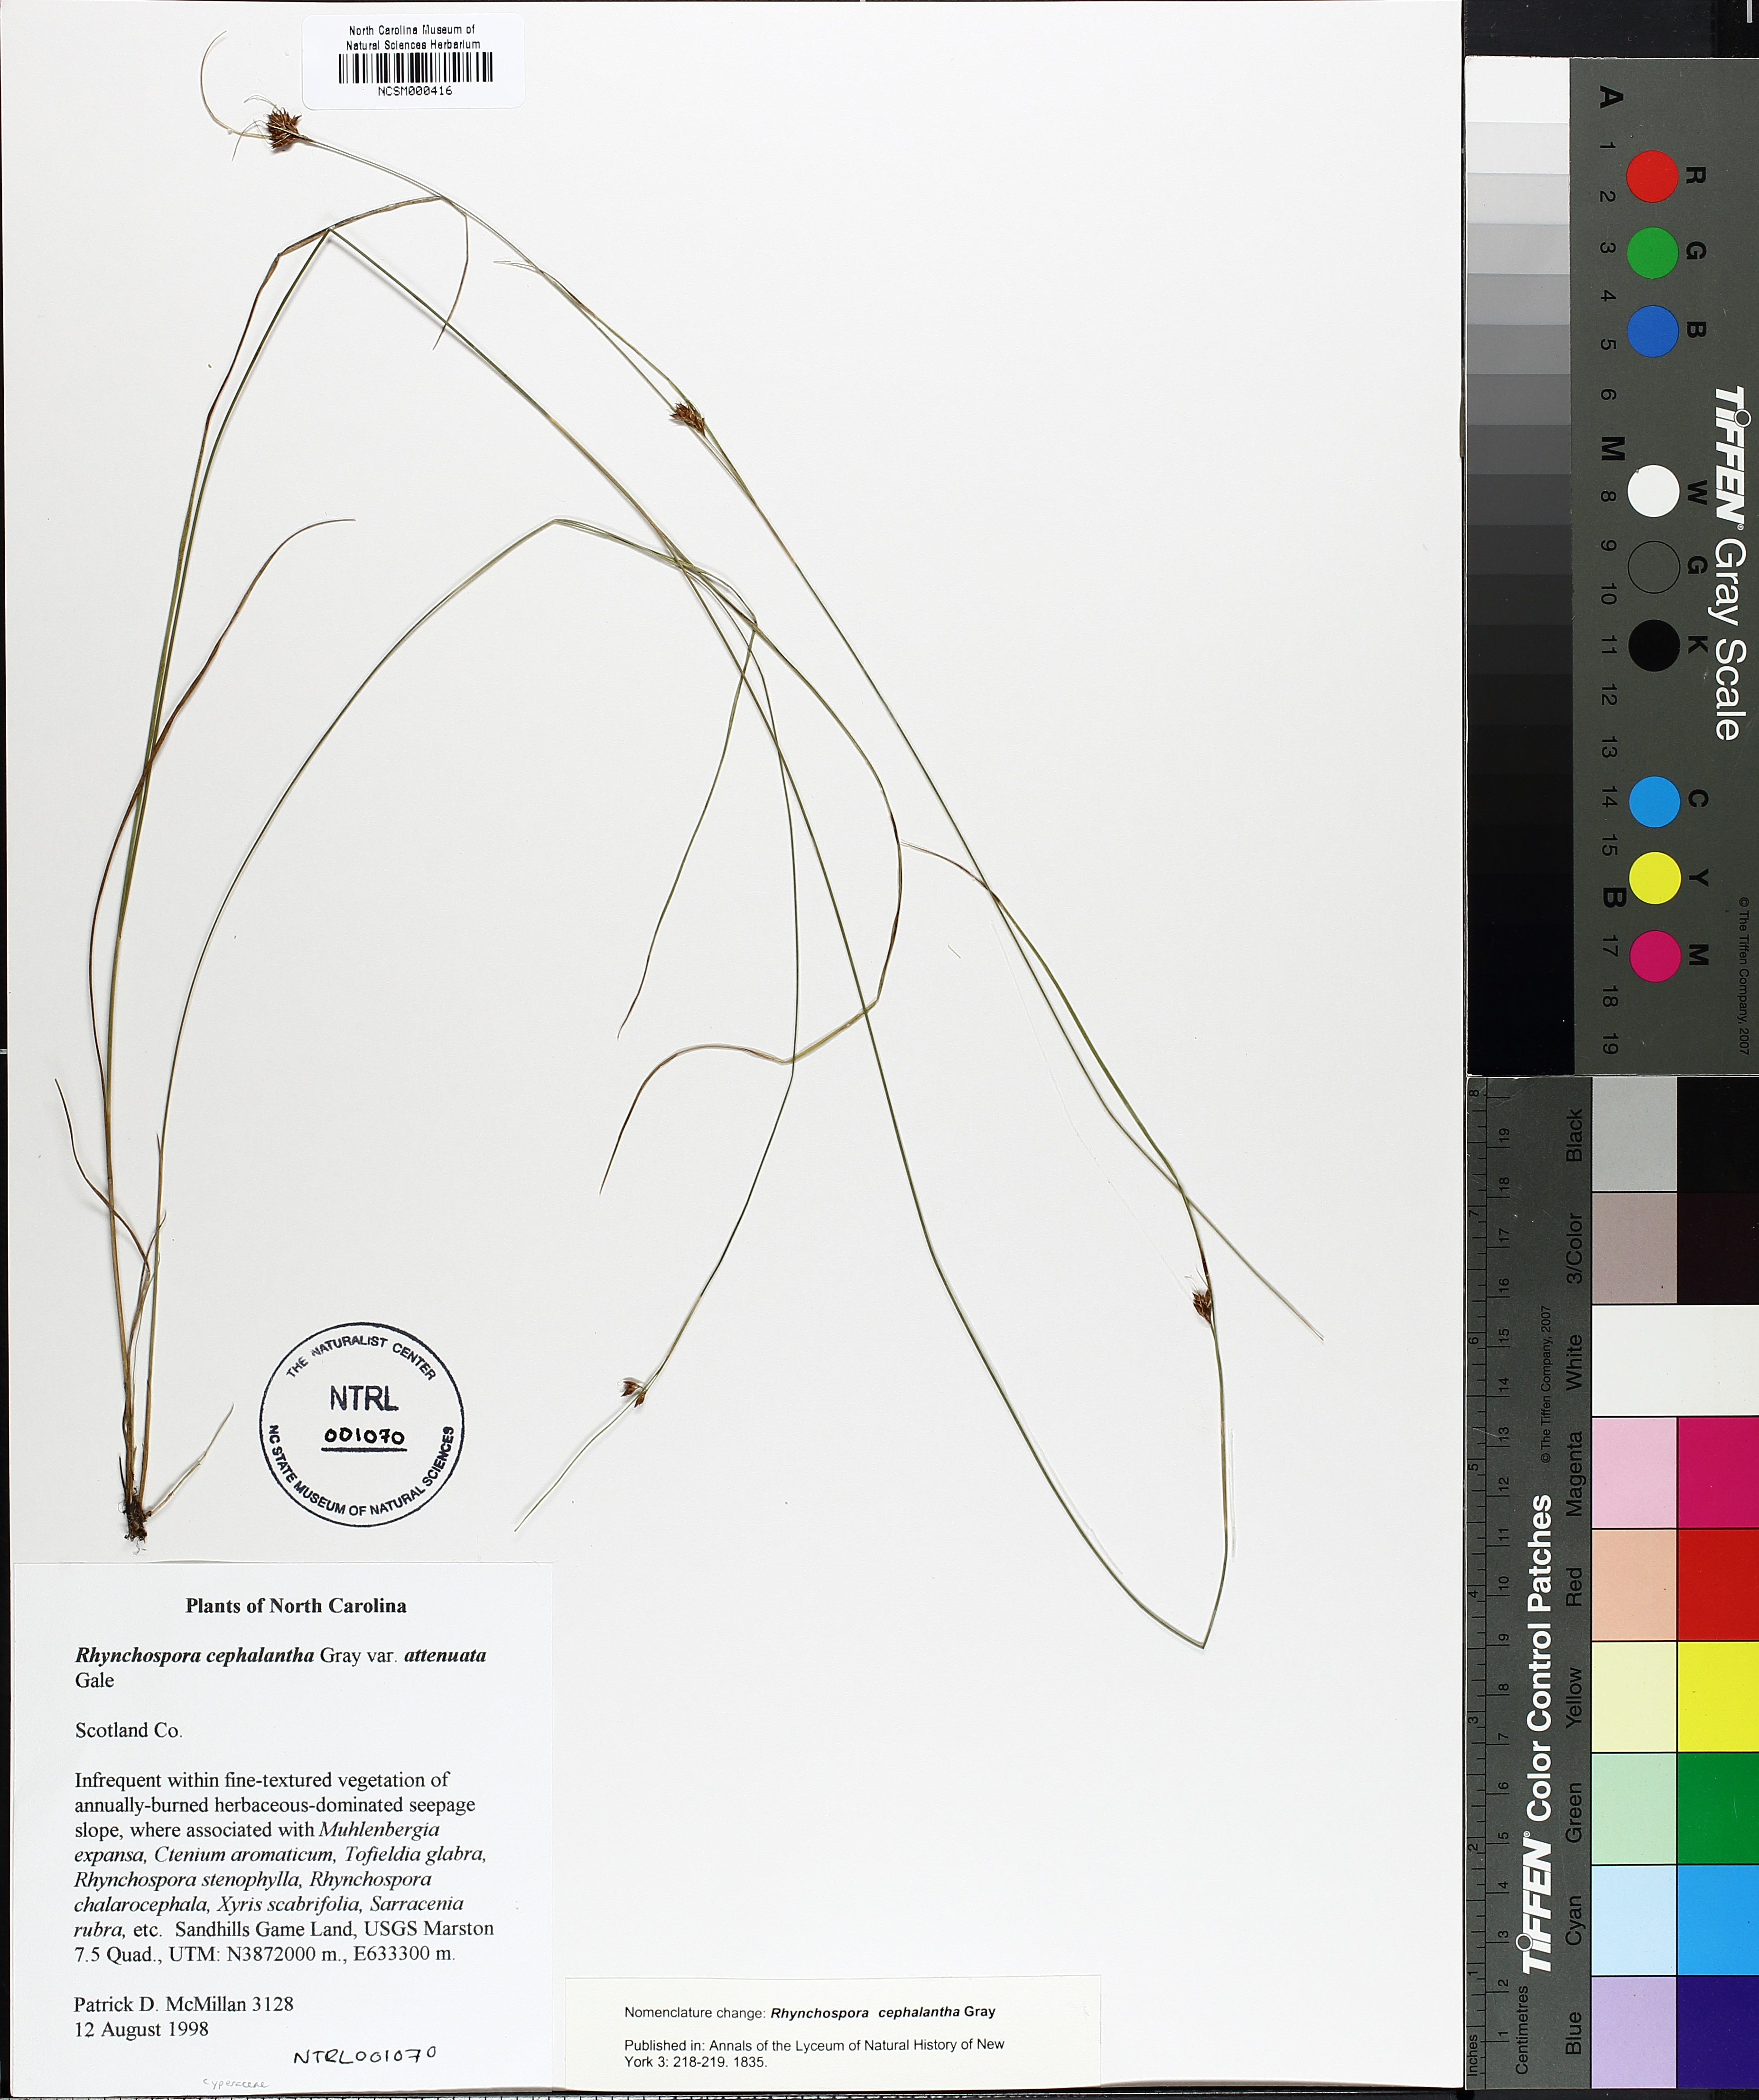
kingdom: Plantae
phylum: Tracheophyta
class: Liliopsida
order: Poales
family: Cyperaceae
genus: Rhynchospora
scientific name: Rhynchospora cephalantha
